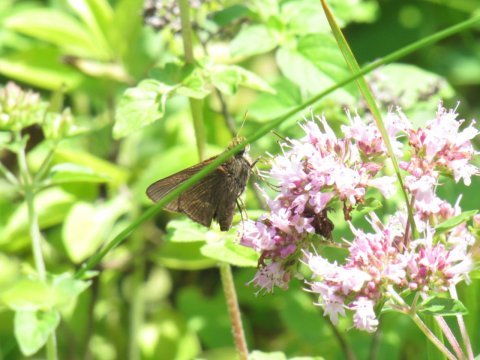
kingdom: Animalia
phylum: Arthropoda
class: Insecta
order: Lepidoptera
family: Hesperiidae
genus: Euphyes
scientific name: Euphyes vestris
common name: Dun Skipper
